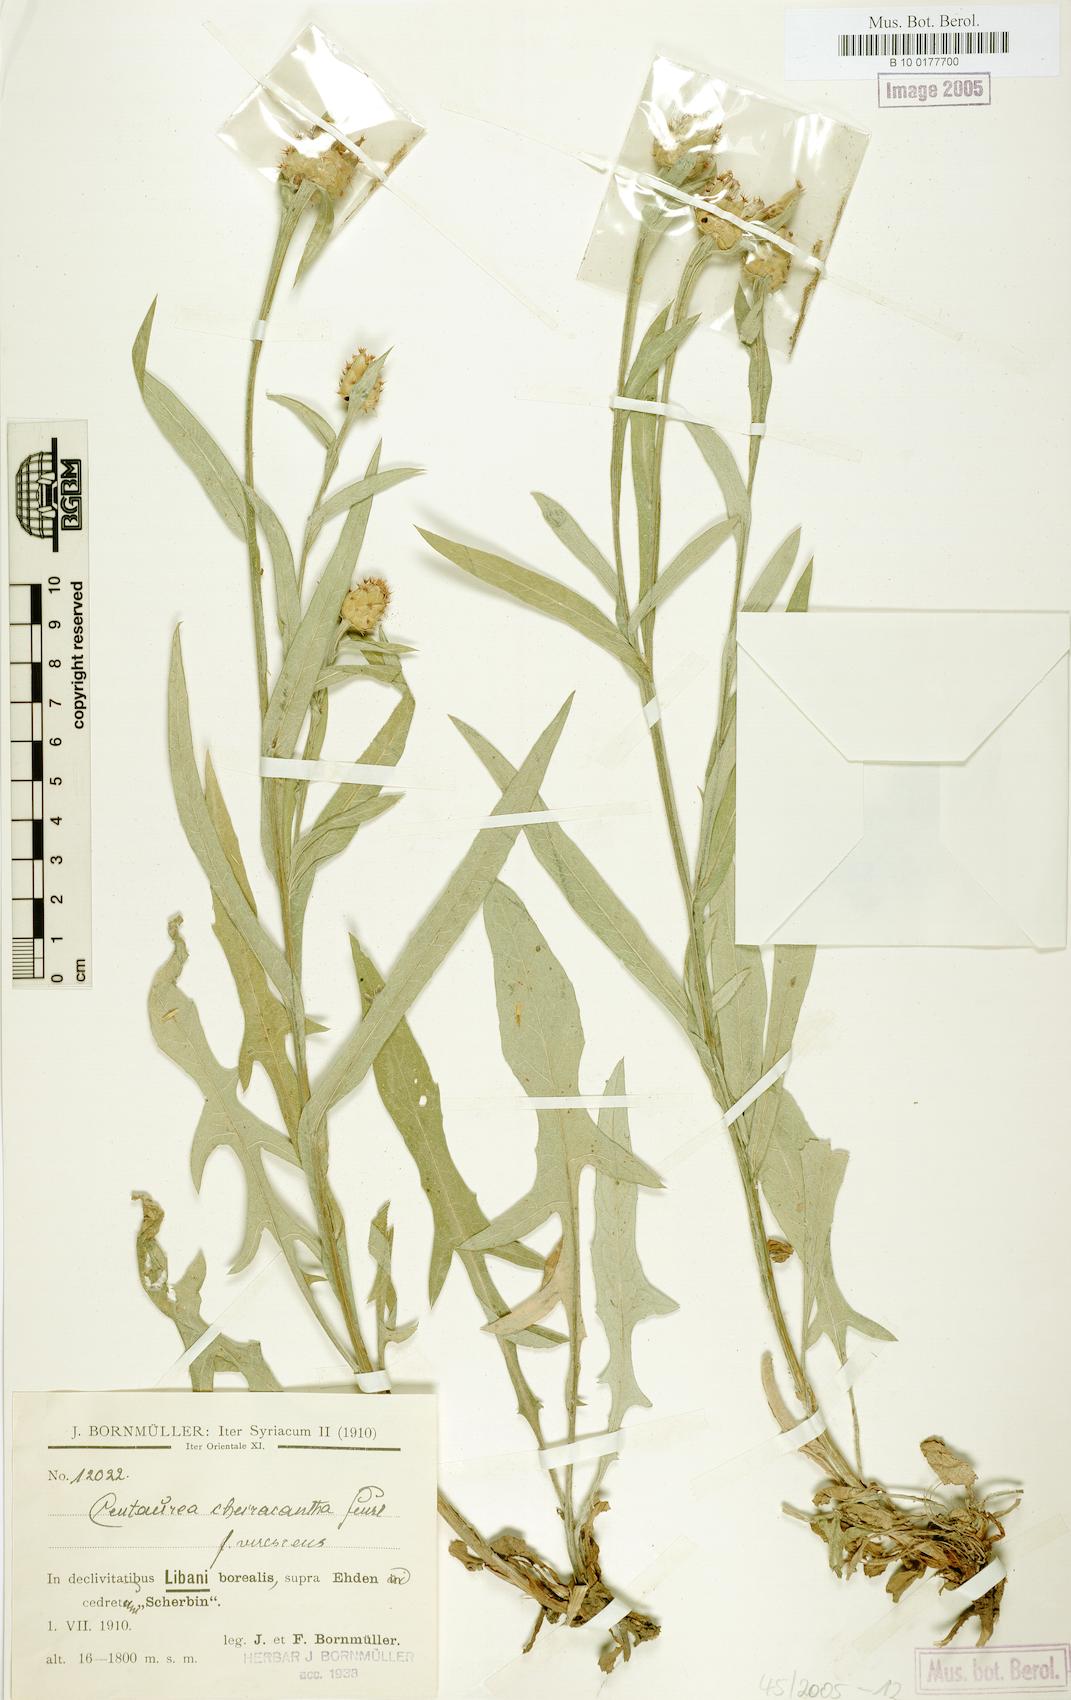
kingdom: Plantae
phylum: Tracheophyta
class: Magnoliopsida
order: Asterales
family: Asteraceae
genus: Centaurea
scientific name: Centaurea cheirolopha
